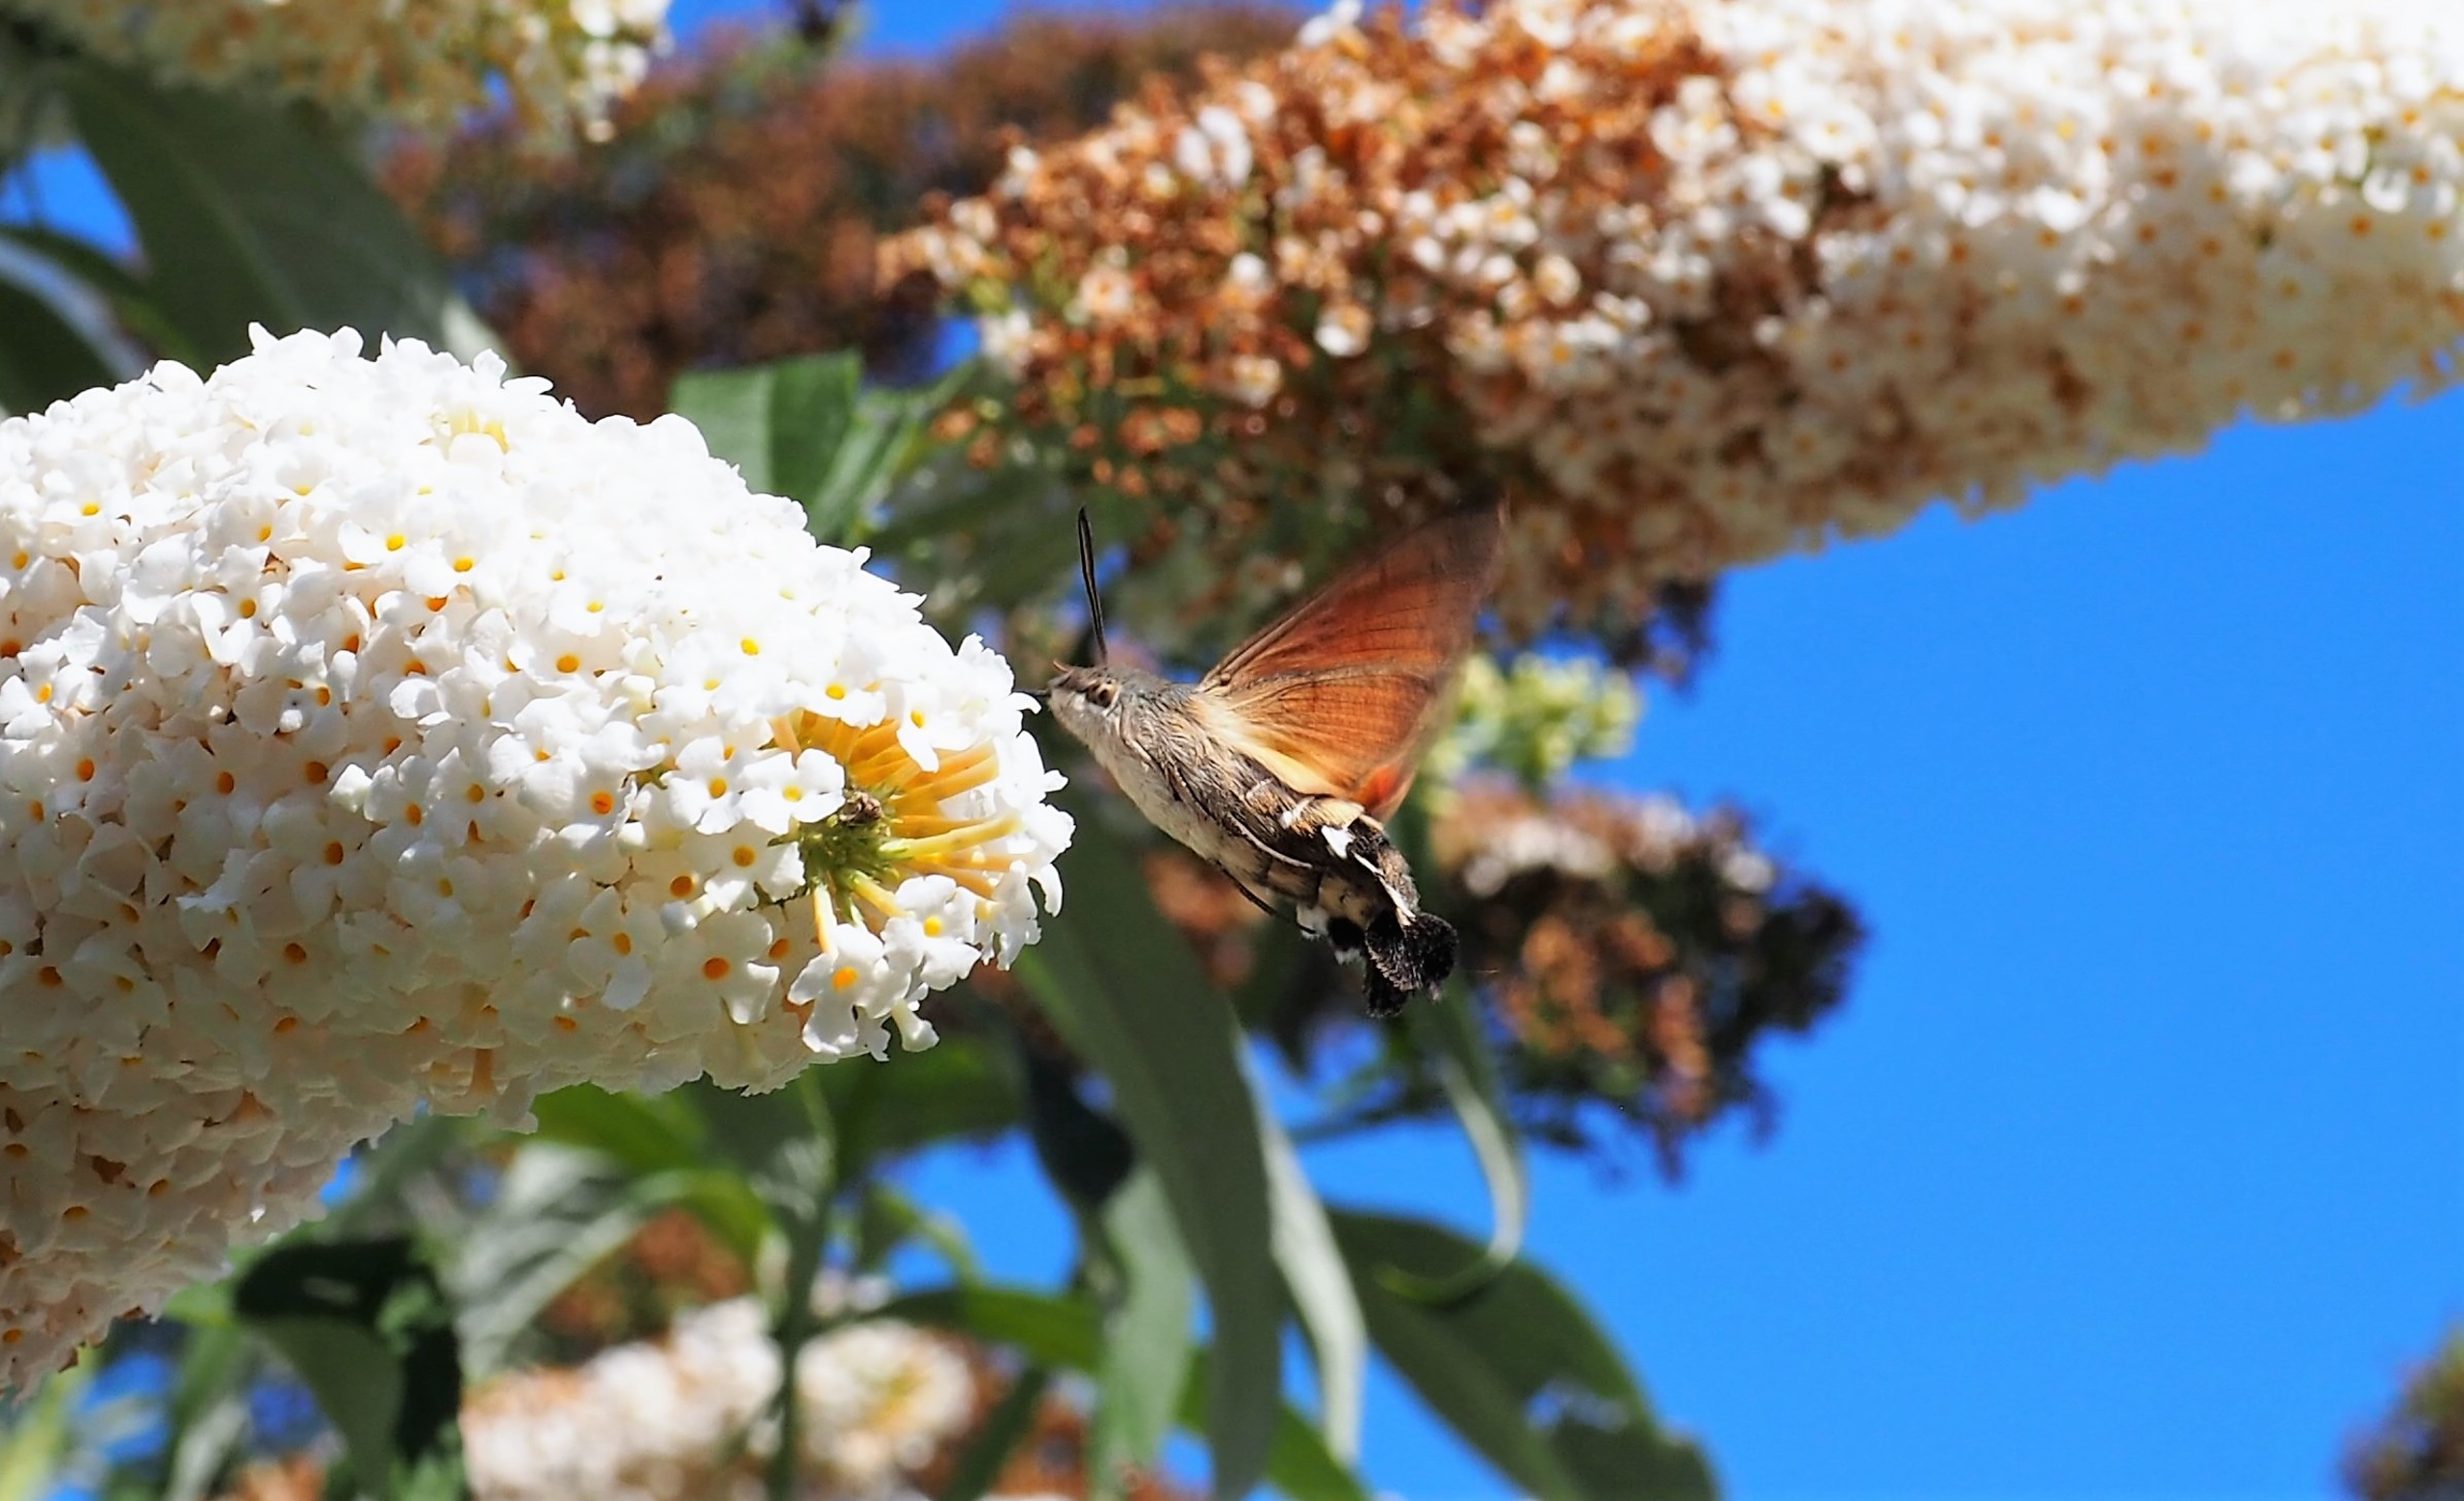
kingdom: Animalia
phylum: Arthropoda
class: Insecta
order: Lepidoptera
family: Sphingidae
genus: Macroglossum
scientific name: Macroglossum stellatarum
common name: Duehale
